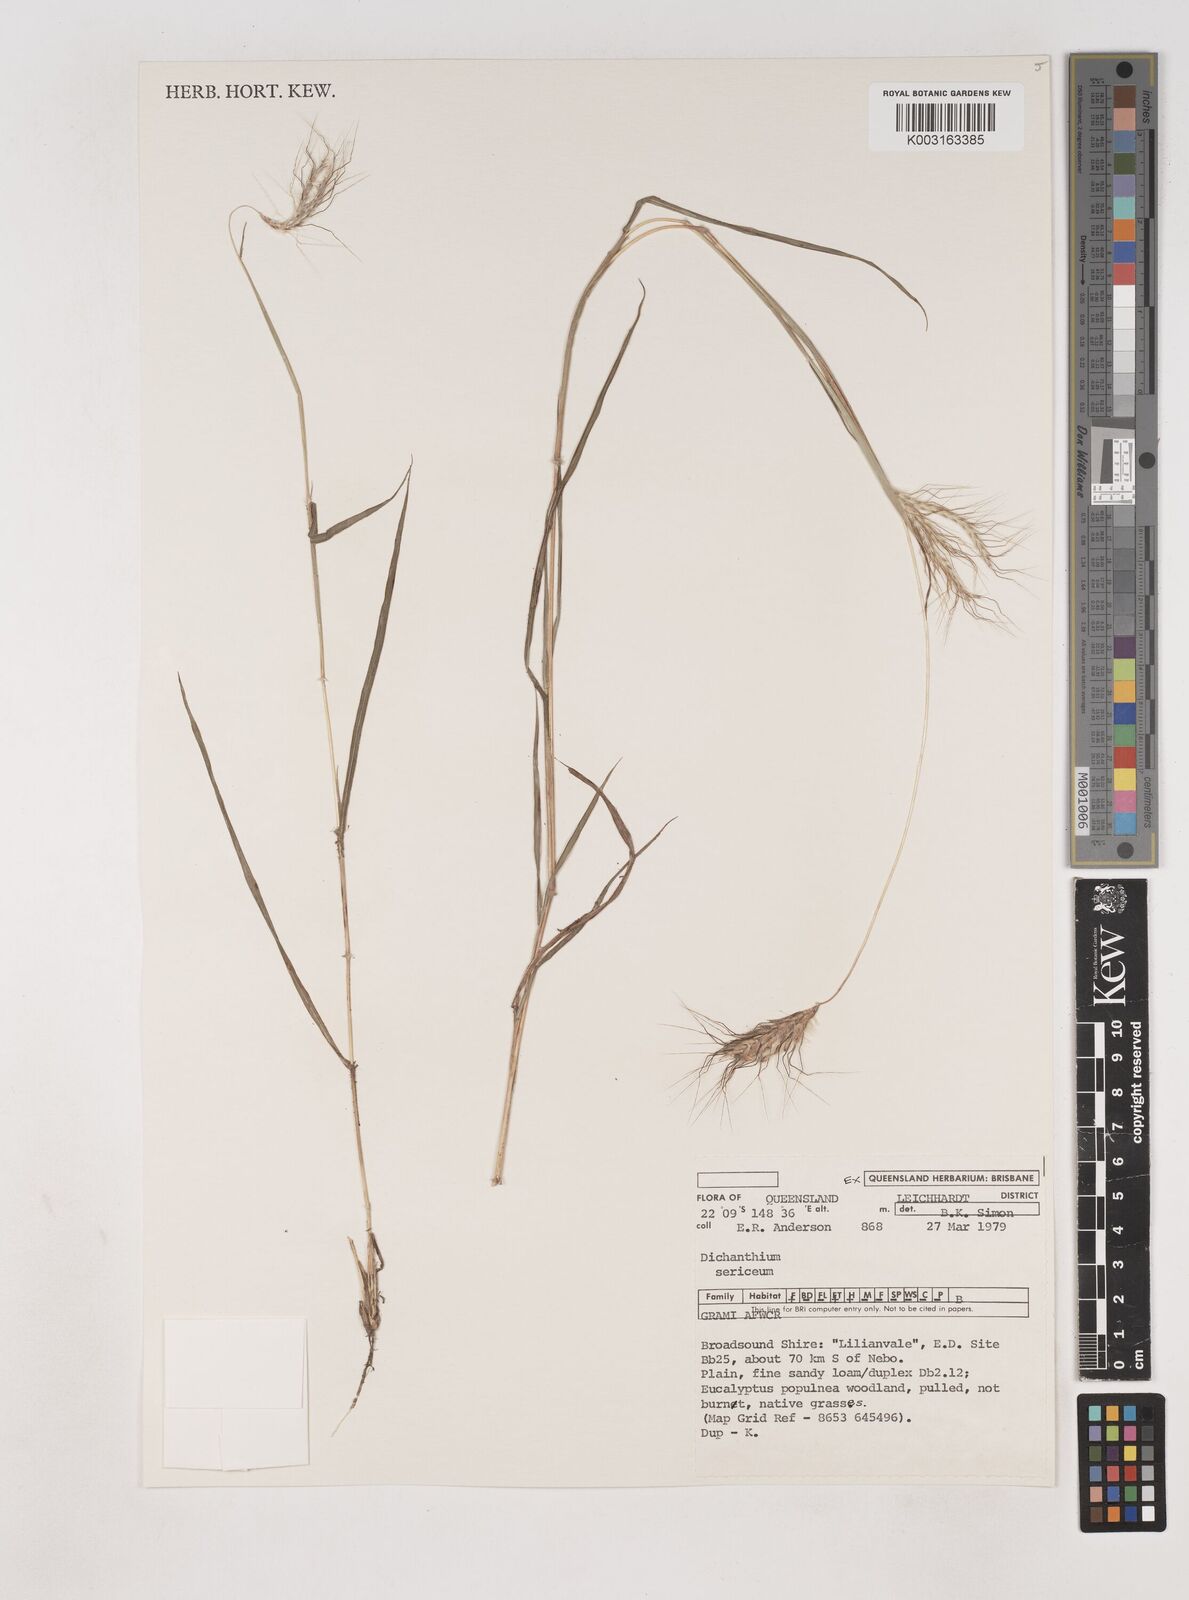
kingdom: Plantae
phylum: Tracheophyta
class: Liliopsida
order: Poales
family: Poaceae
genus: Dichanthium
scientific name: Dichanthium sericeum
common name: Silky bluestem
